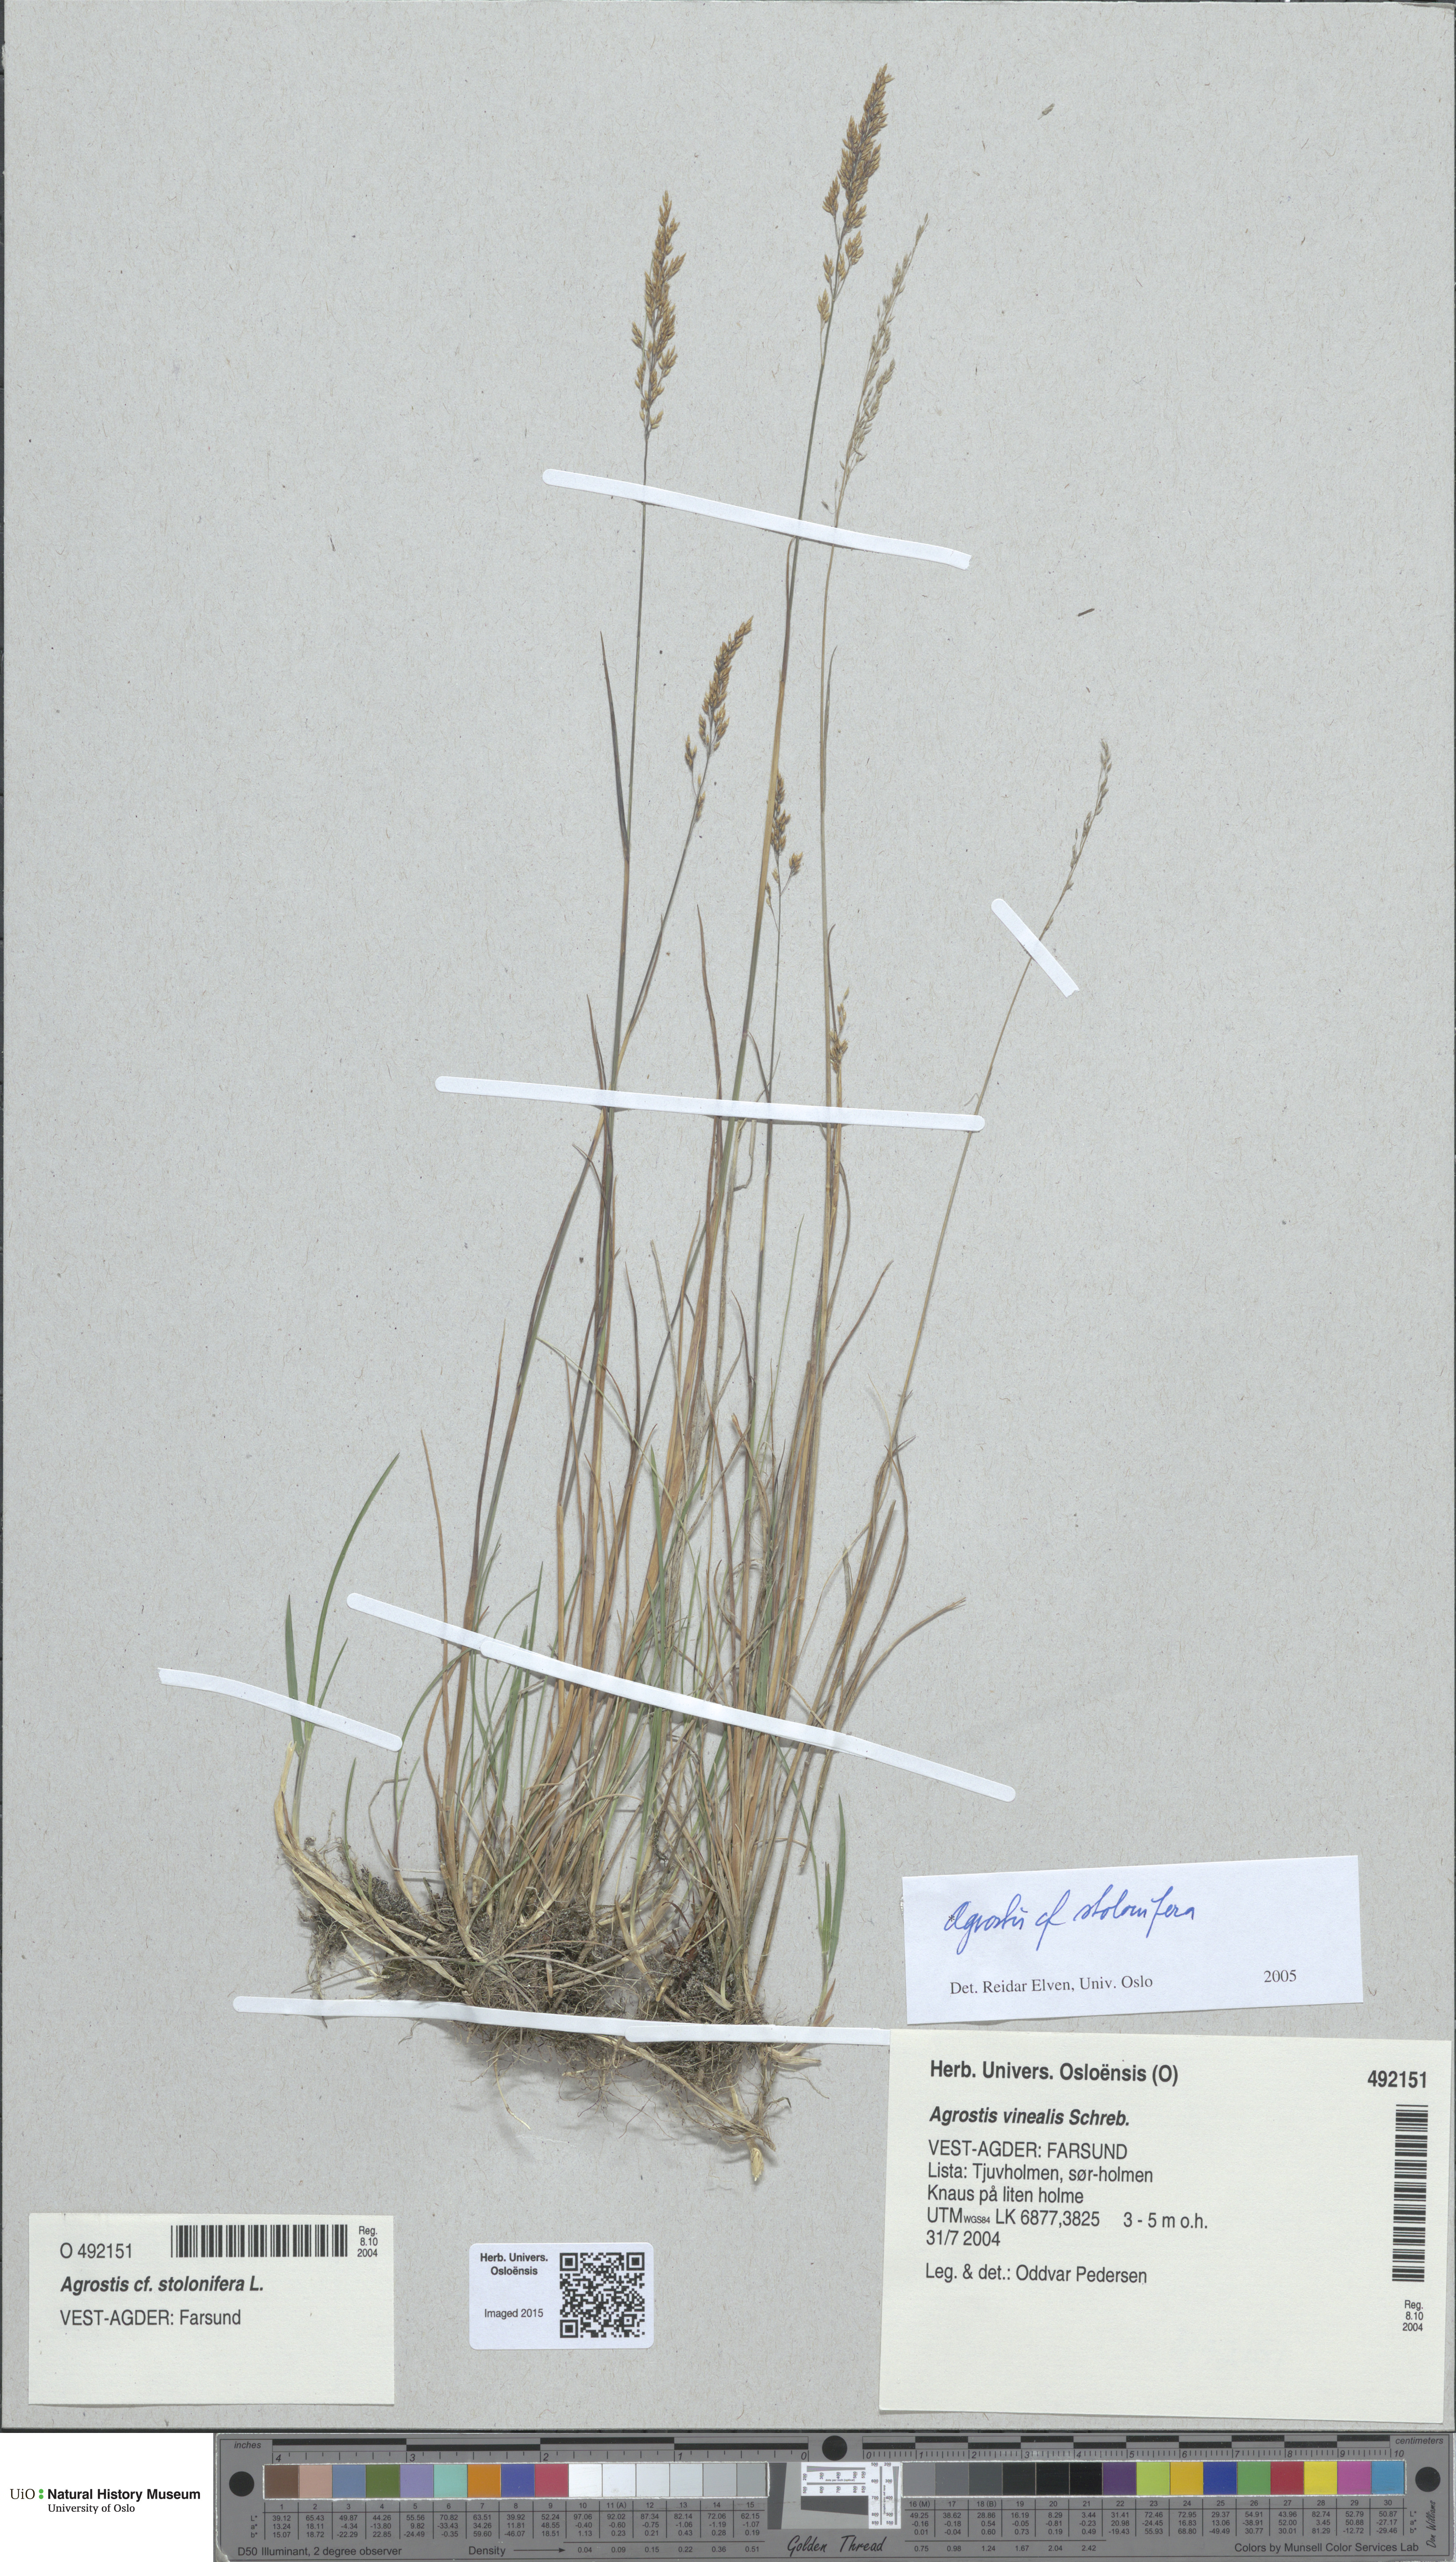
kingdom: Plantae
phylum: Tracheophyta
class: Liliopsida
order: Poales
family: Poaceae
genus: Agrostis
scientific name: Agrostis stolonifera
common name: Creeping bentgrass
